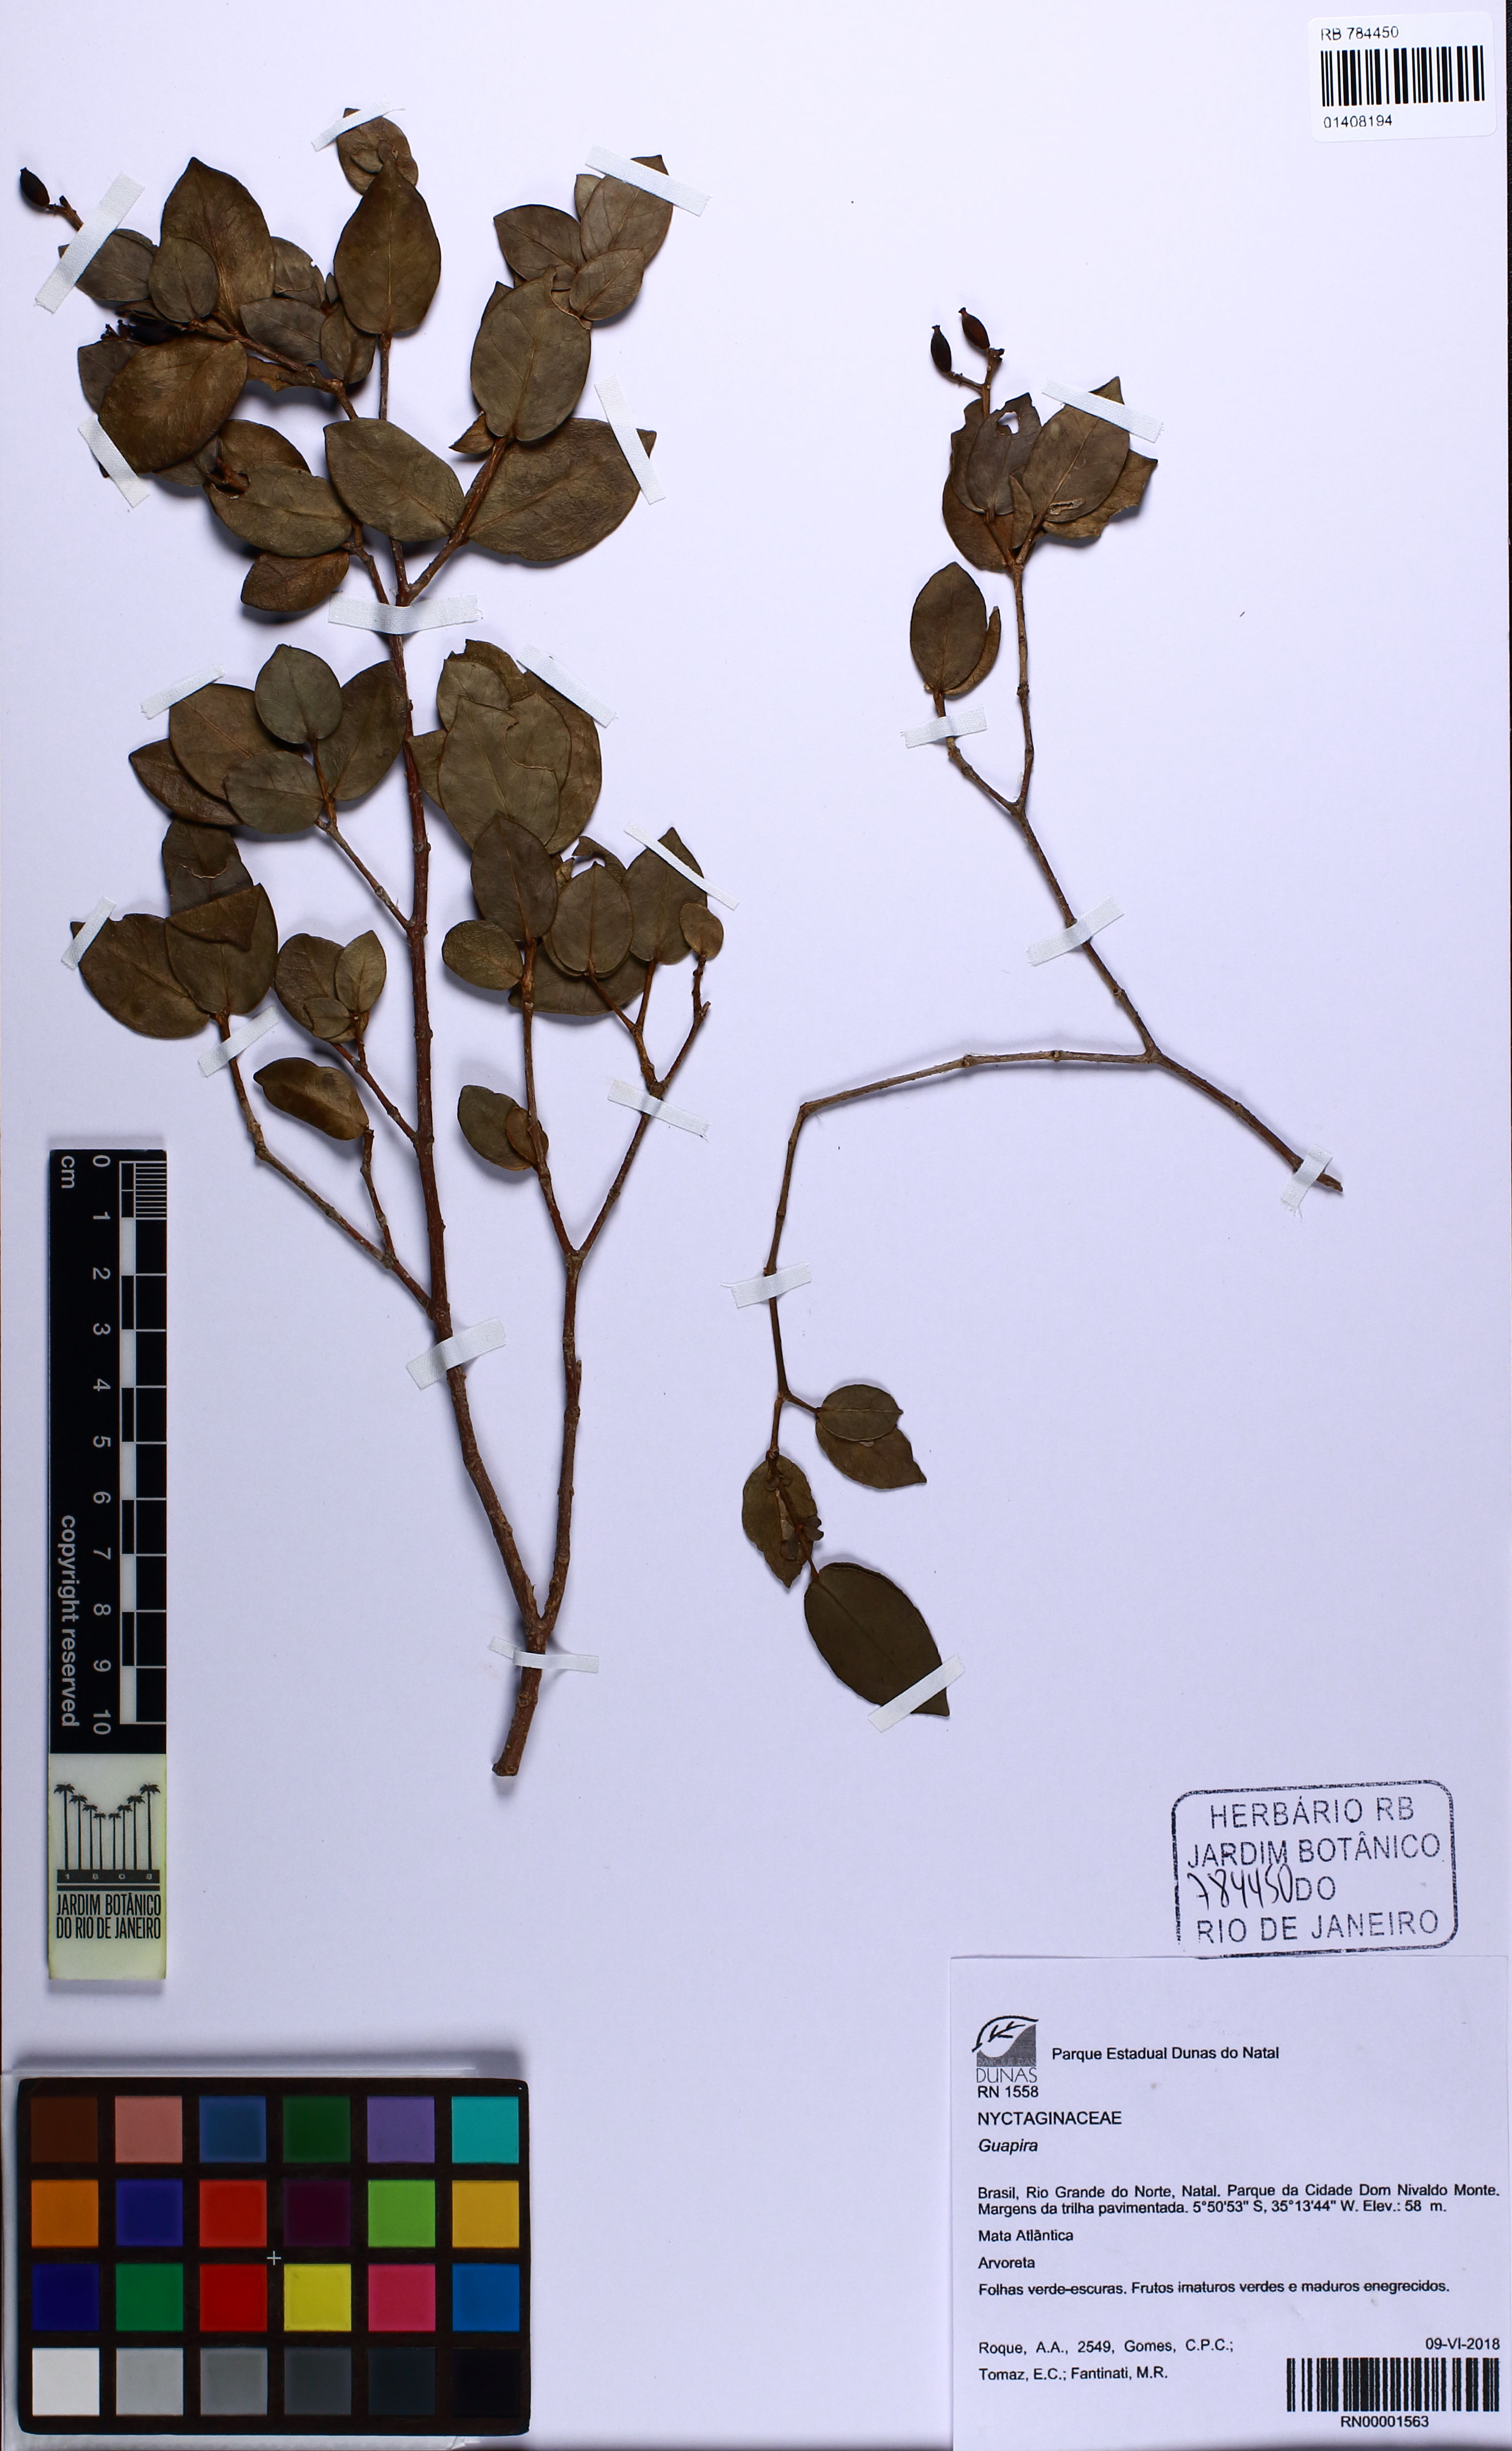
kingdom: Plantae
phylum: Tracheophyta
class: Magnoliopsida
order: Caryophyllales
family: Nyctaginaceae
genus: Guapira
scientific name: Guapira
